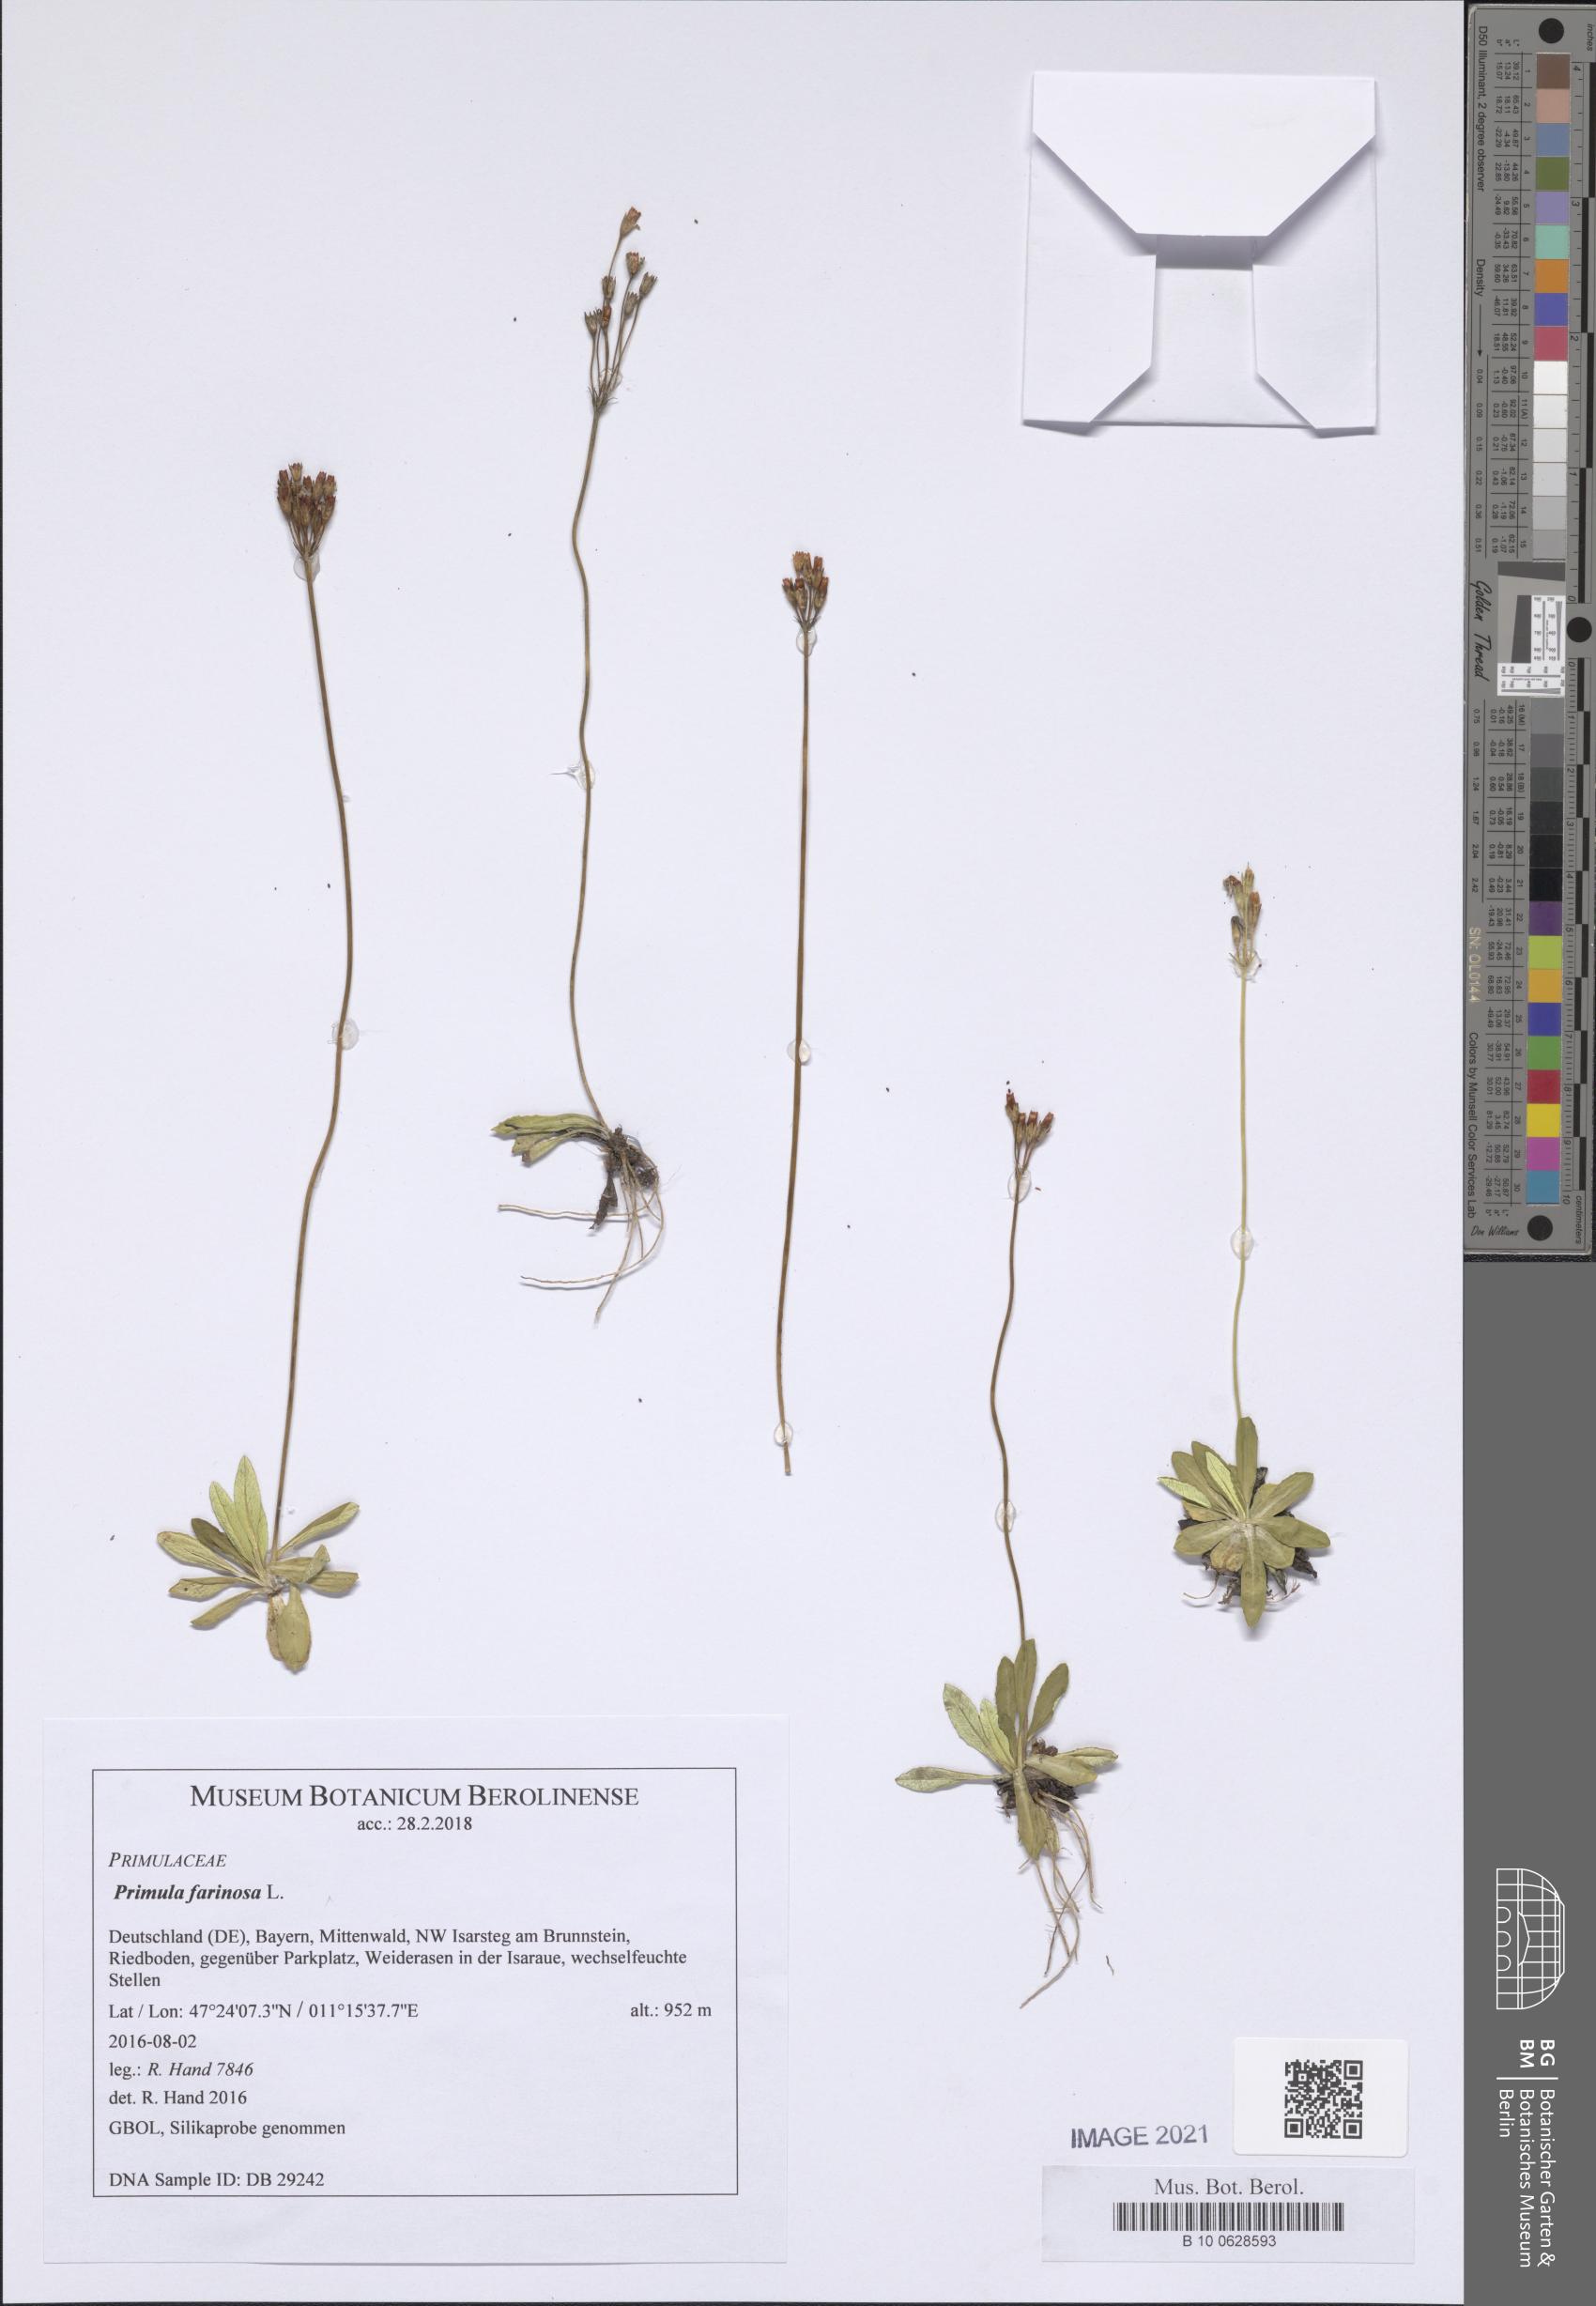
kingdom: Plantae
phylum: Tracheophyta
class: Magnoliopsida
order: Ericales
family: Primulaceae
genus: Primula
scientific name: Primula farinosa
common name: Bird's-eye primrose
